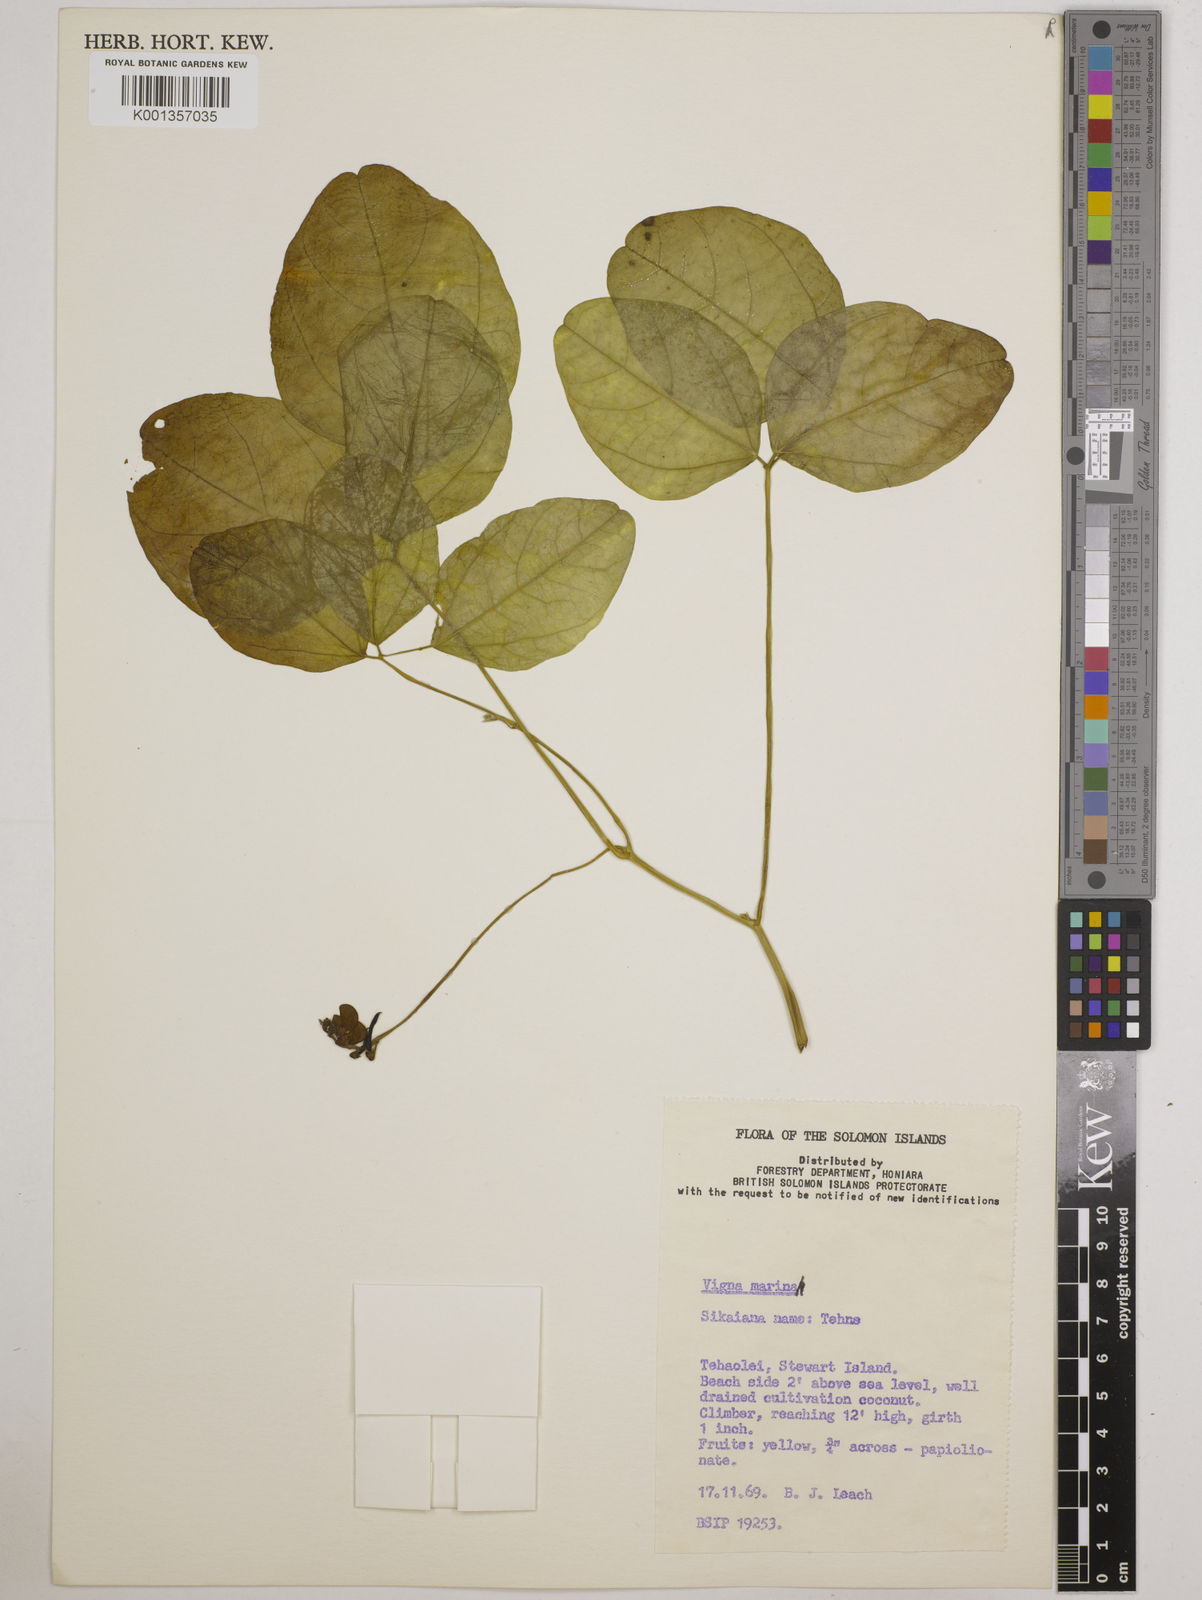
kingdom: Plantae
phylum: Tracheophyta
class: Magnoliopsida
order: Fabales
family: Fabaceae
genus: Vigna
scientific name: Vigna marina
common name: Dune-bean
